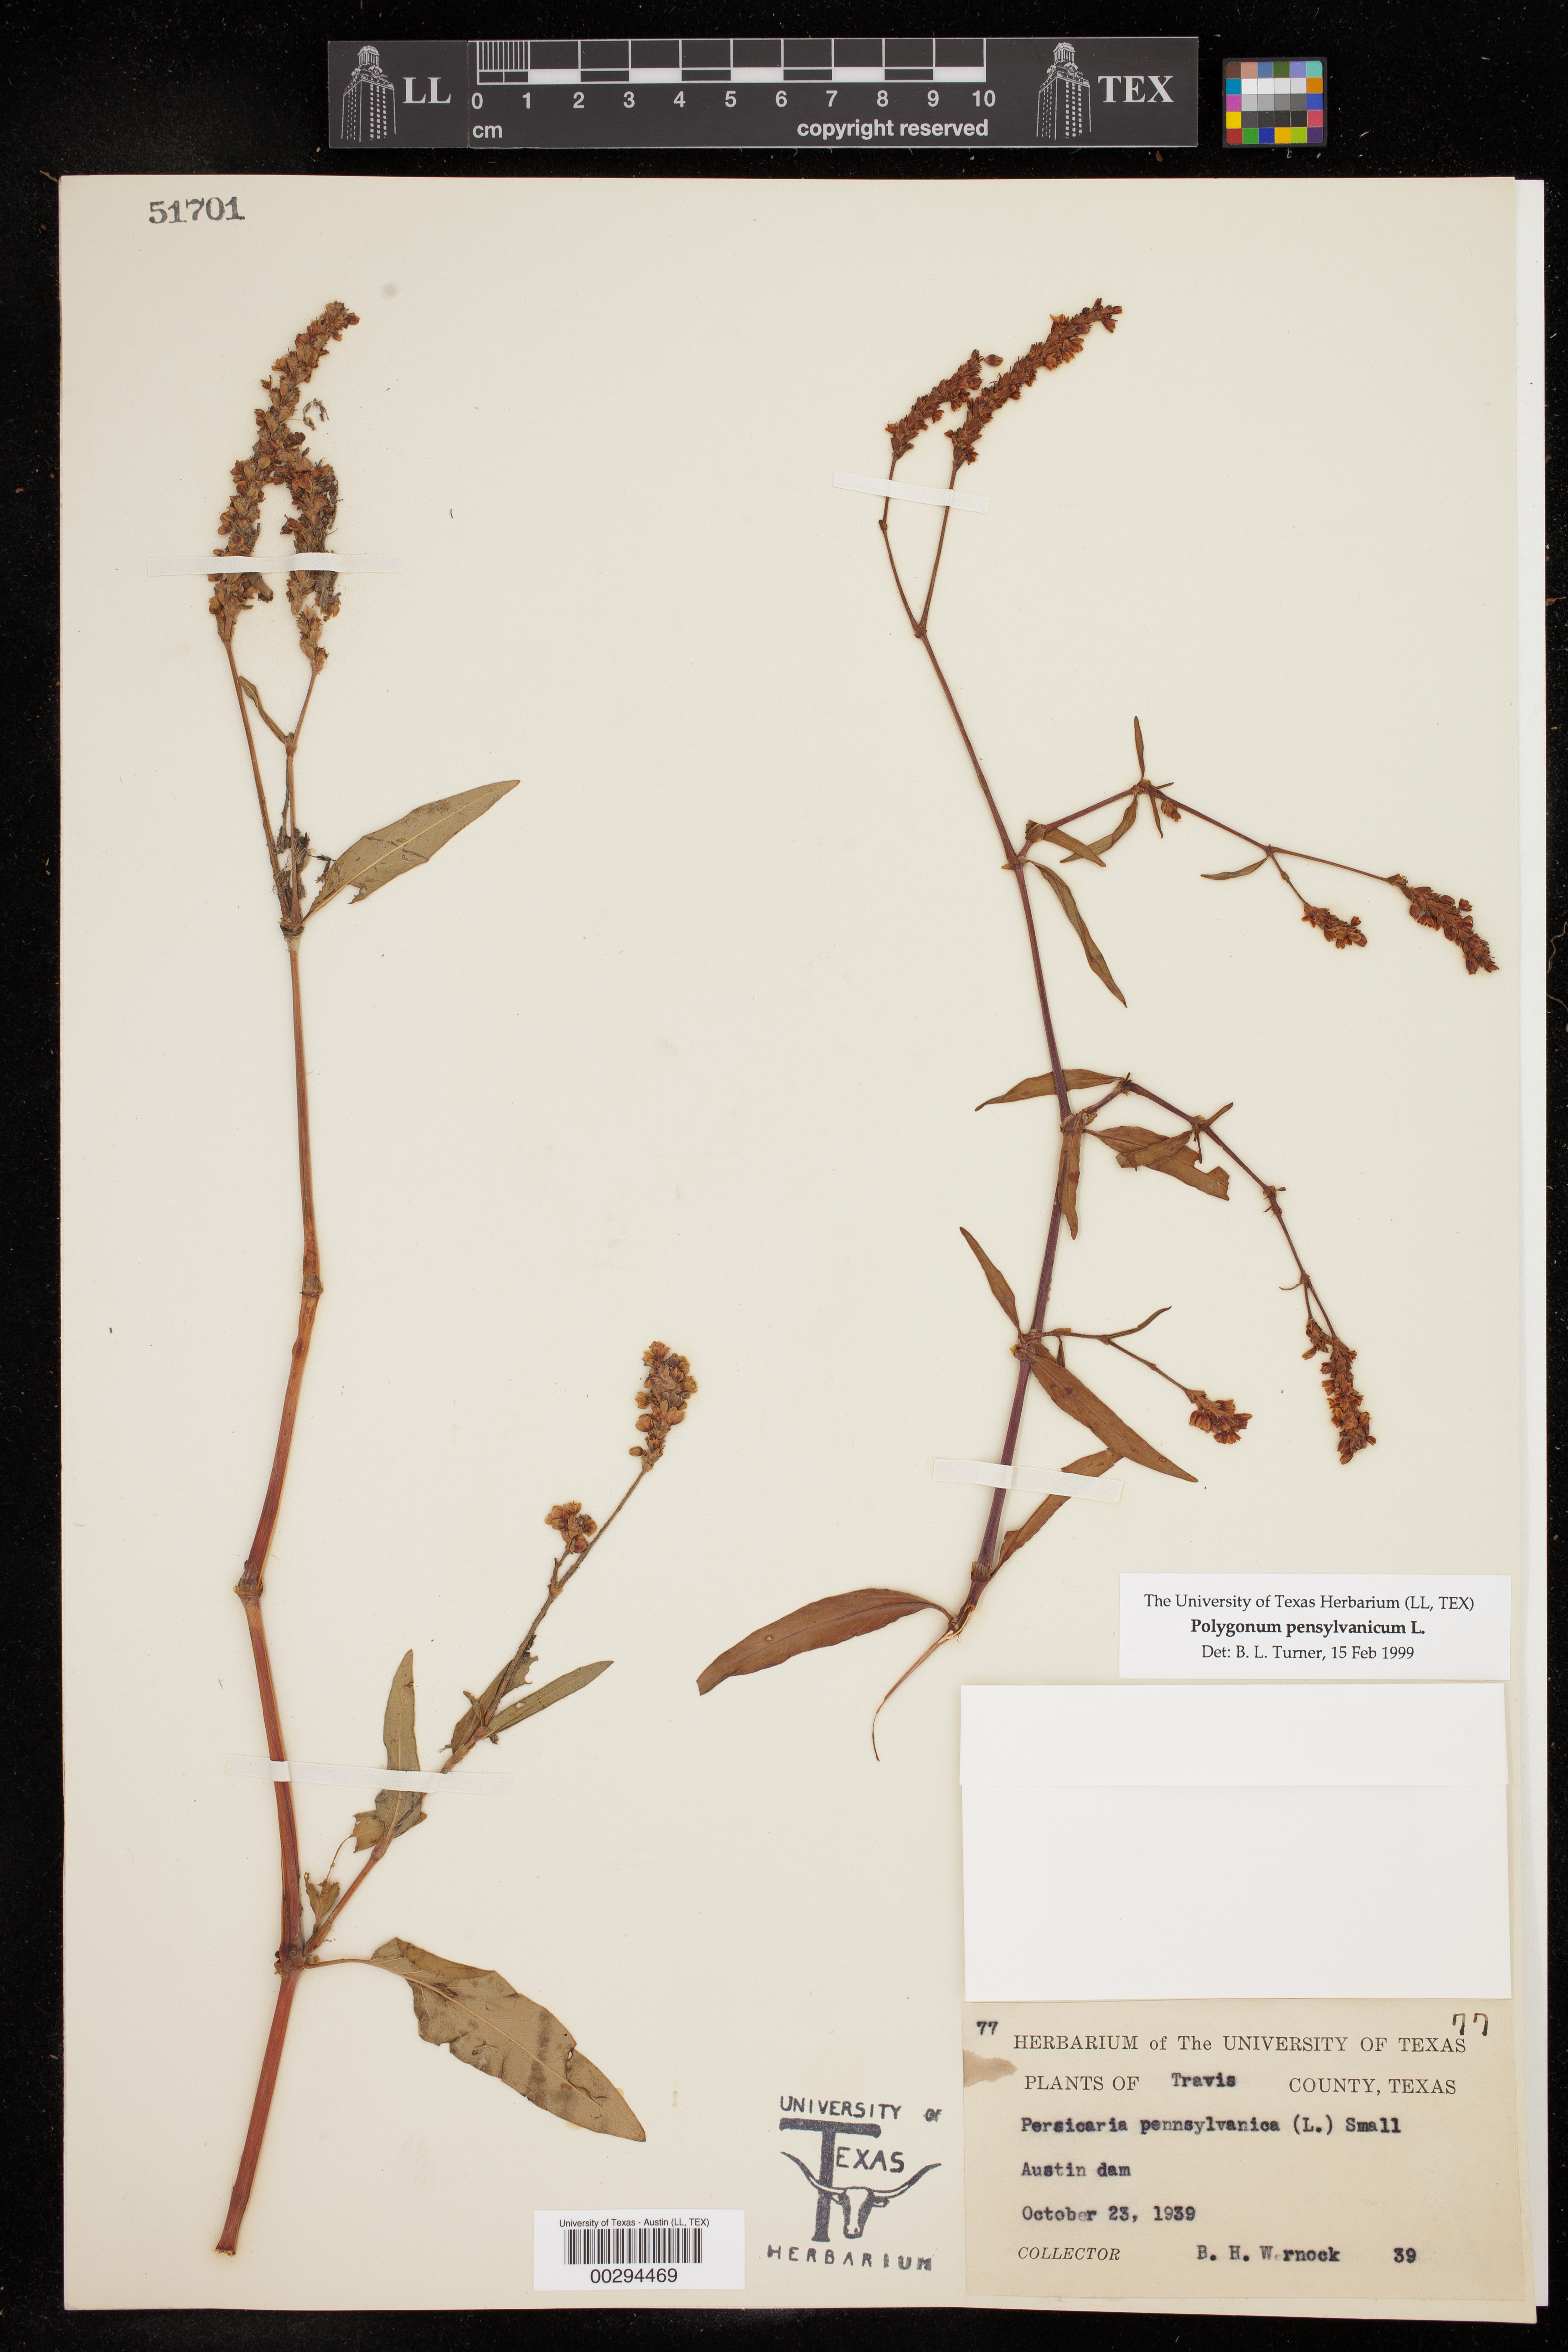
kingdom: Plantae
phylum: Tracheophyta
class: Magnoliopsida
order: Caryophyllales
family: Polygonaceae
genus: Persicaria
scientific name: Persicaria pensylvanica
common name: Pinkweed
